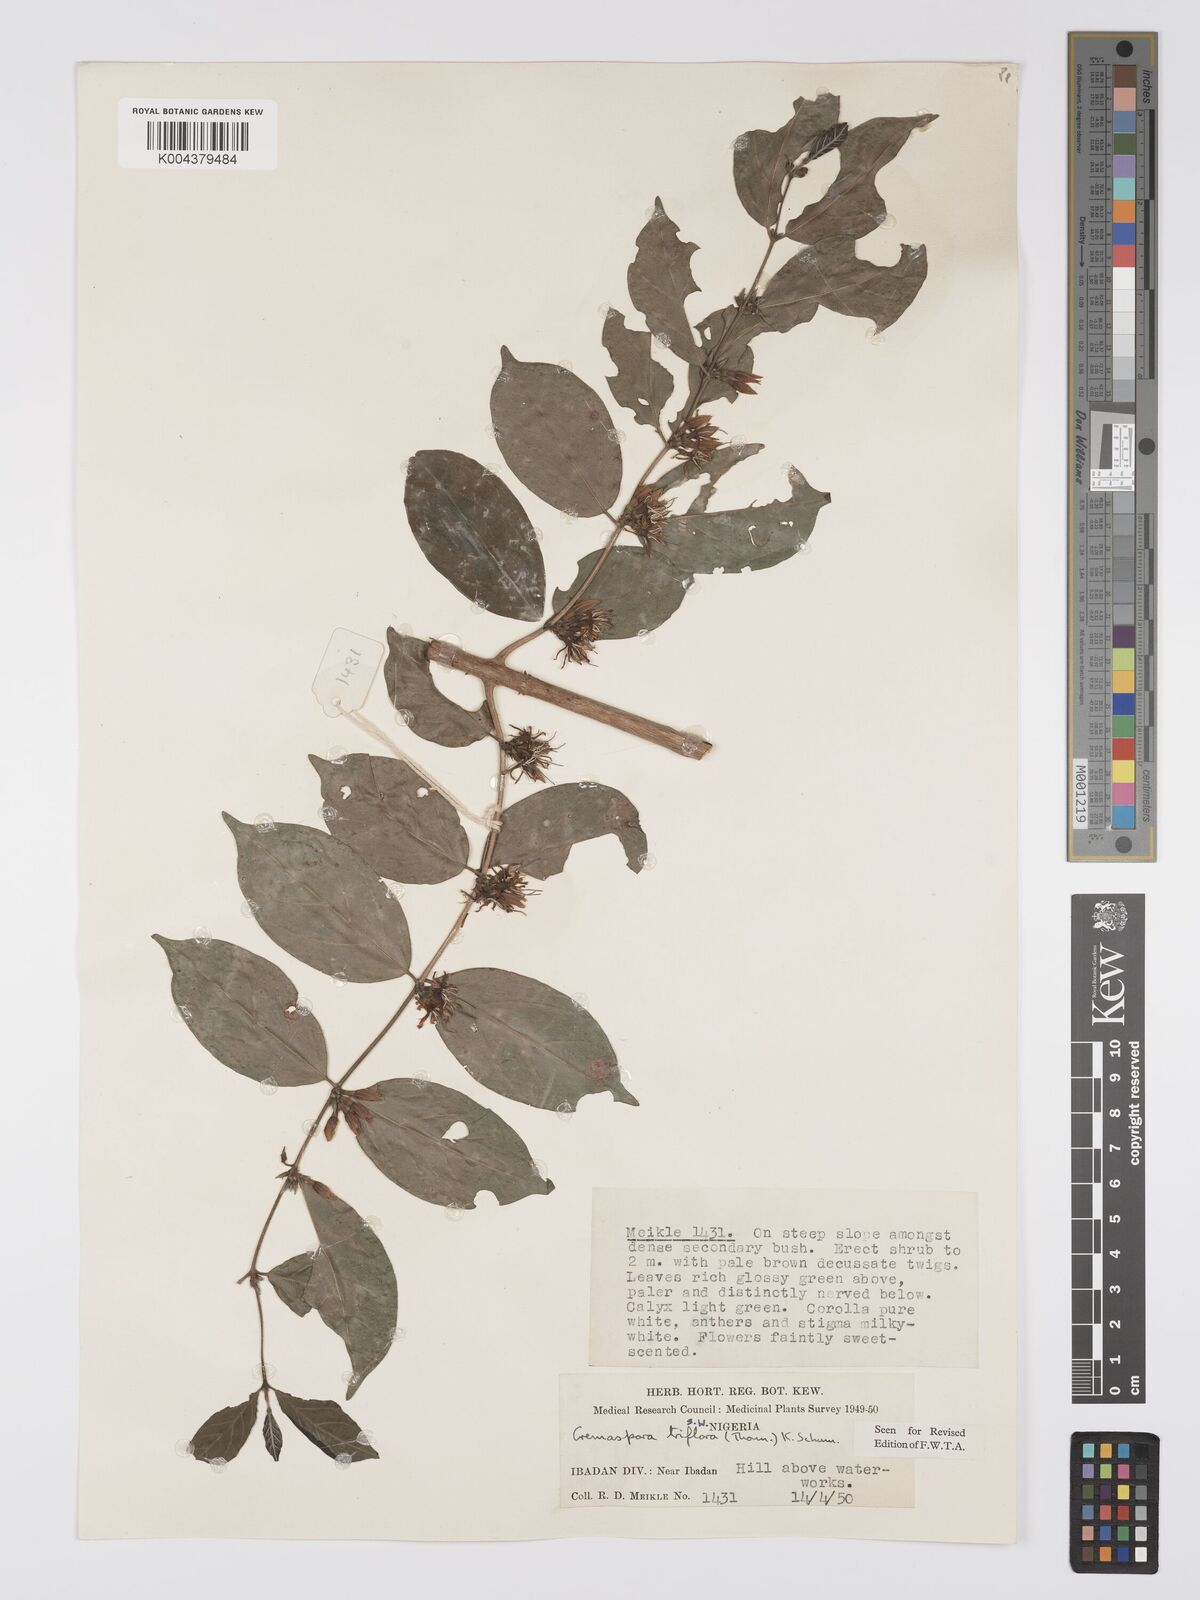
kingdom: Plantae
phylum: Tracheophyta
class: Magnoliopsida
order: Gentianales
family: Rubiaceae
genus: Cremaspora
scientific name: Cremaspora triflora
